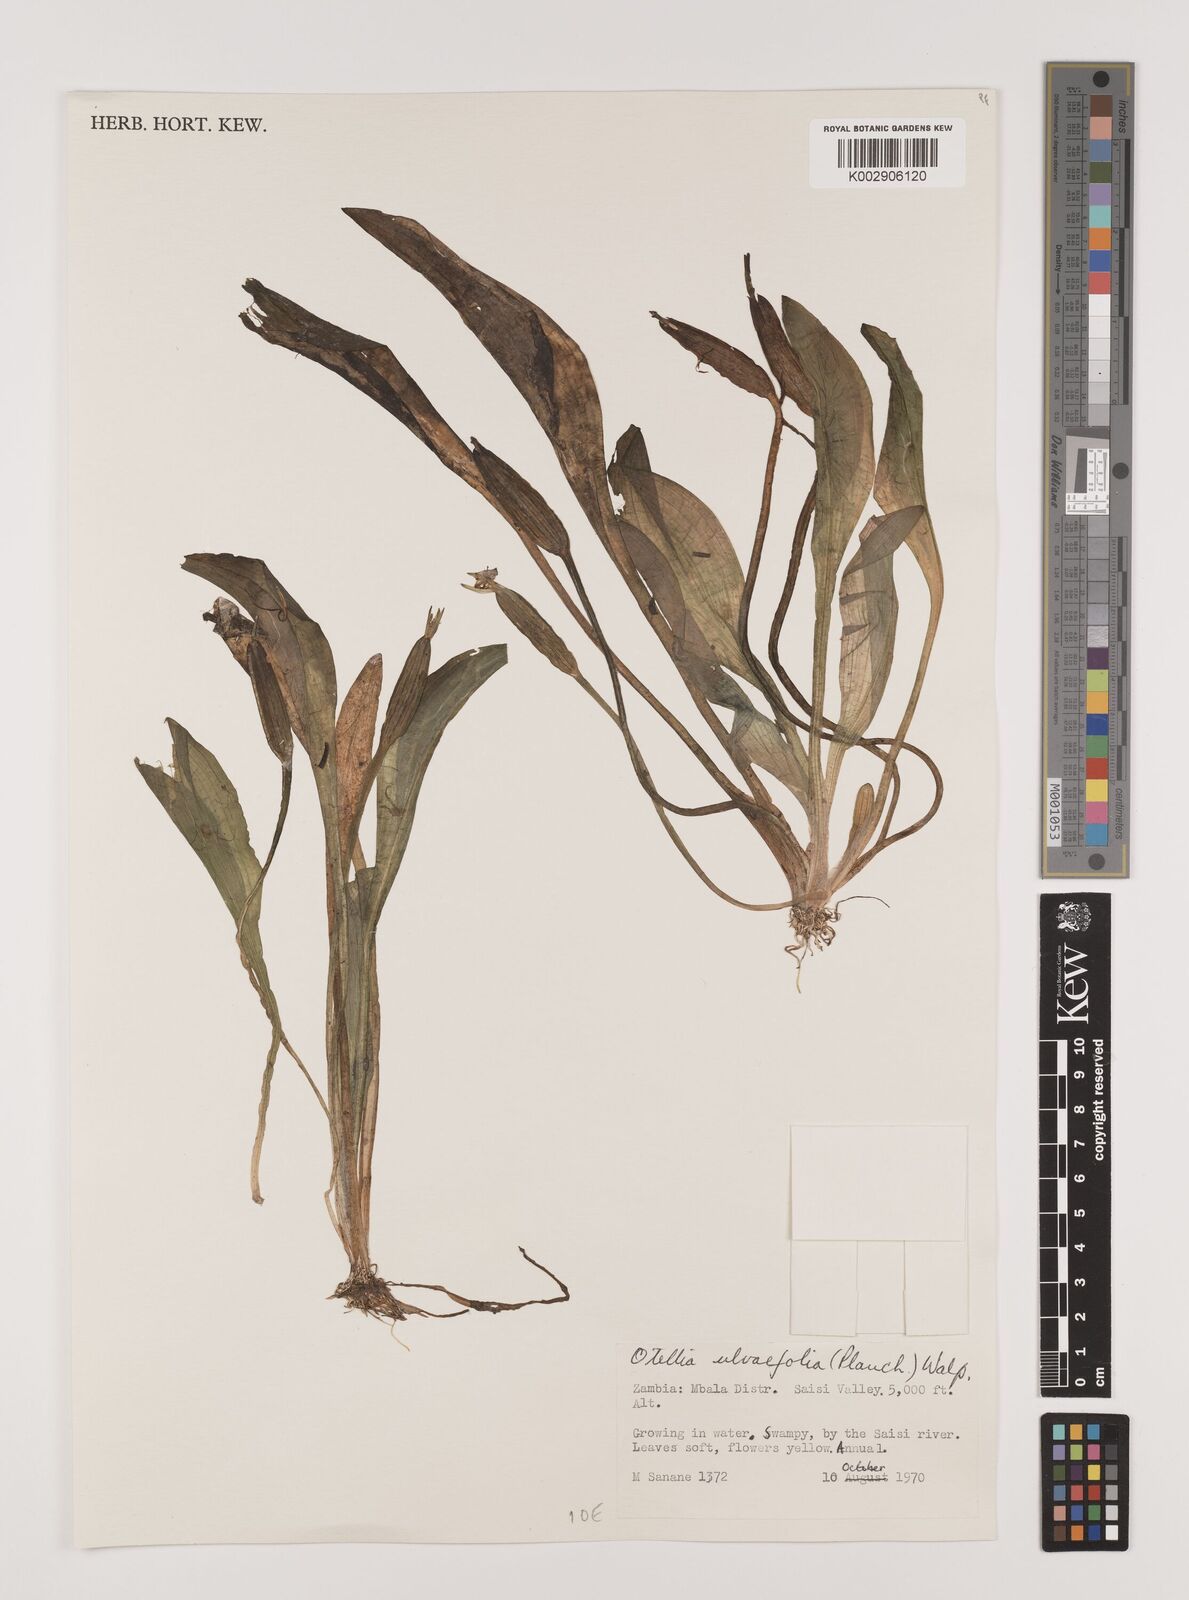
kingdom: Plantae
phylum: Tracheophyta
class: Liliopsida
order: Alismatales
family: Hydrocharitaceae
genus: Ottelia
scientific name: Ottelia ulvifolia
